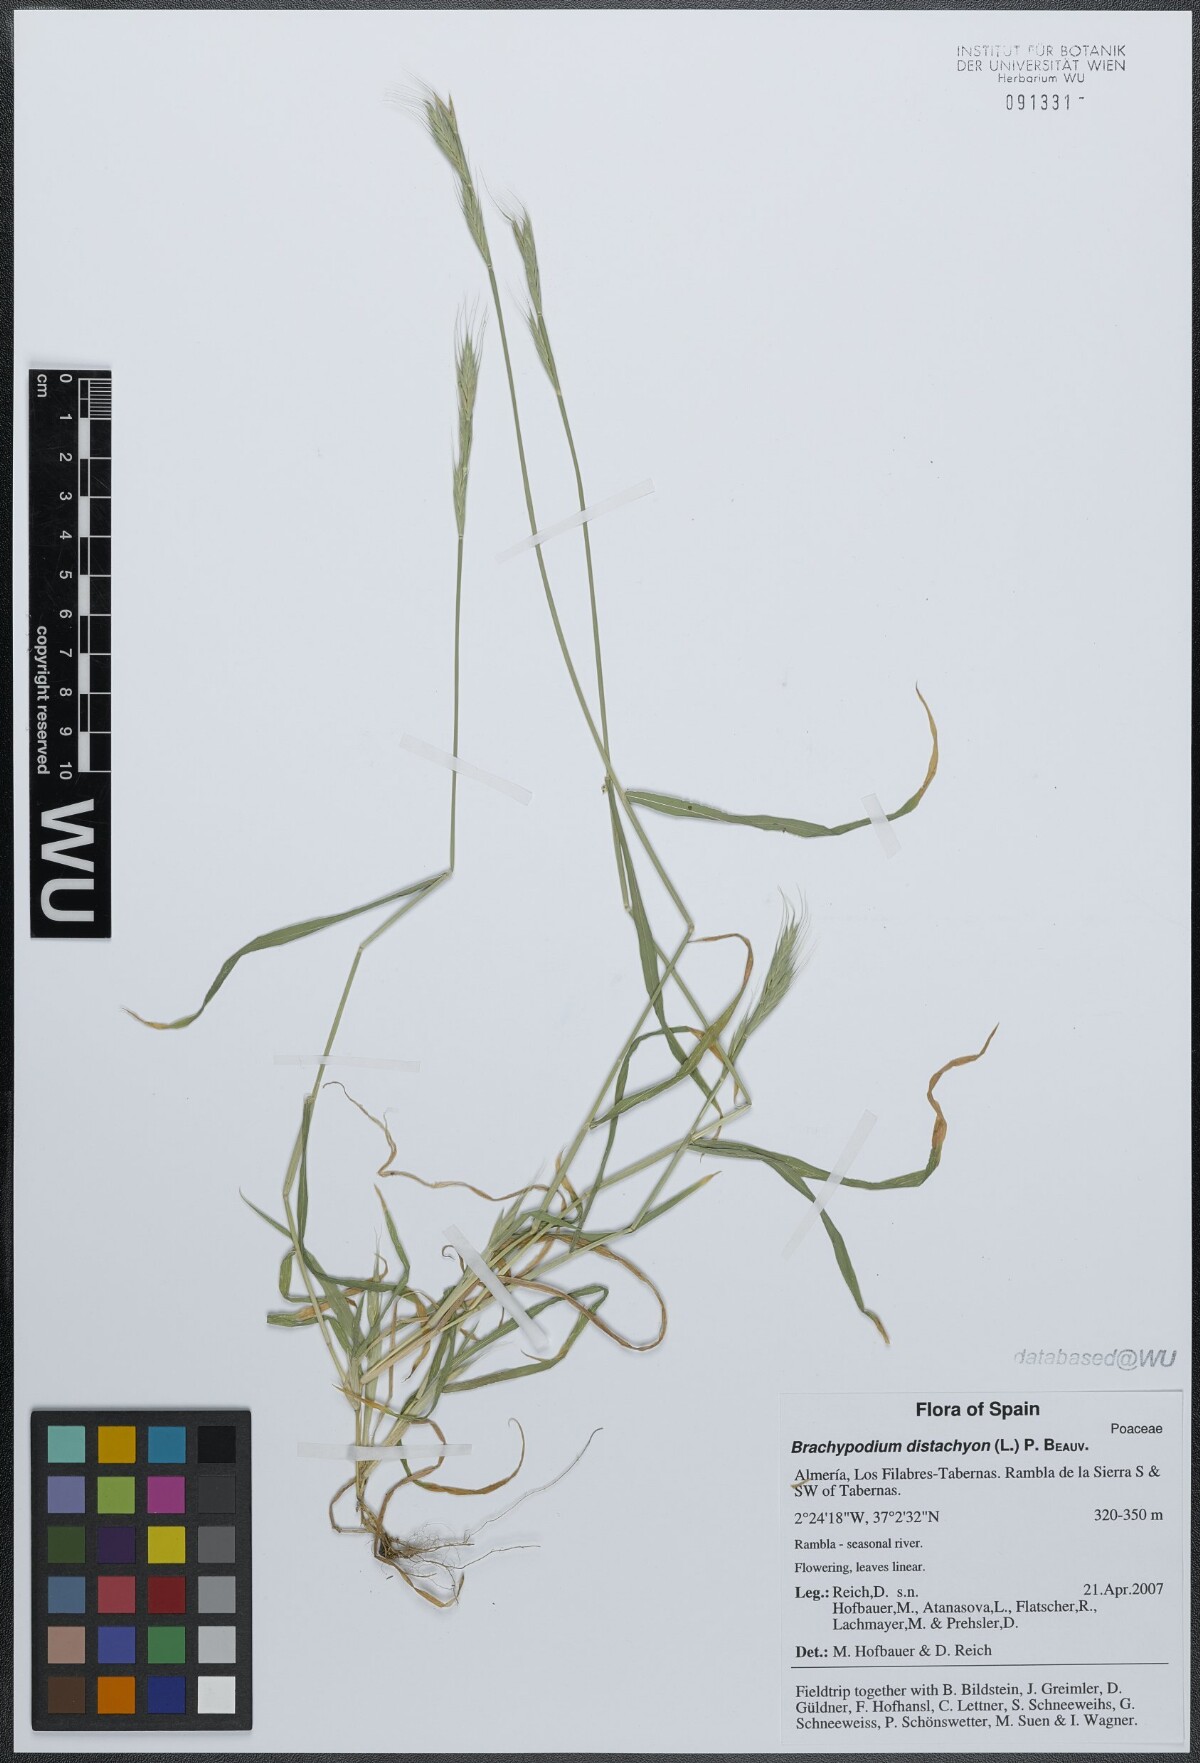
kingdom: Plantae
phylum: Tracheophyta
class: Liliopsida
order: Poales
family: Poaceae
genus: Brachypodium
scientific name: Brachypodium distachyon
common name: Stiff brome
